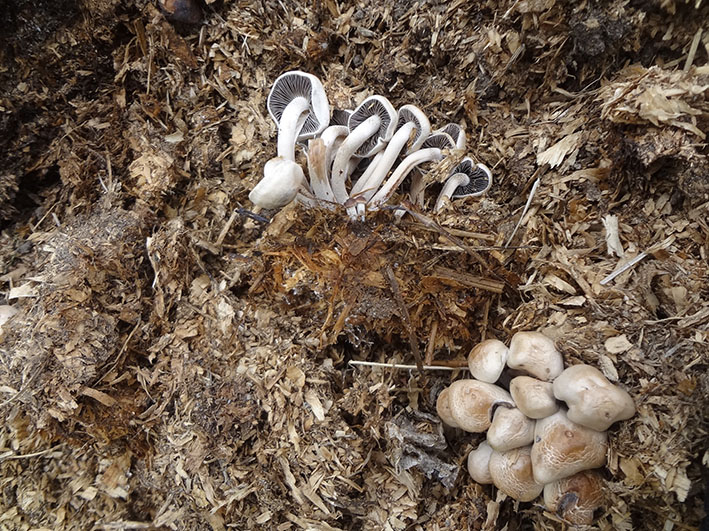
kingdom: Fungi
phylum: Basidiomycota
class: Agaricomycetes
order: Agaricales
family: Bolbitiaceae
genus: Panaeolus
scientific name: Panaeolus cinctulus
